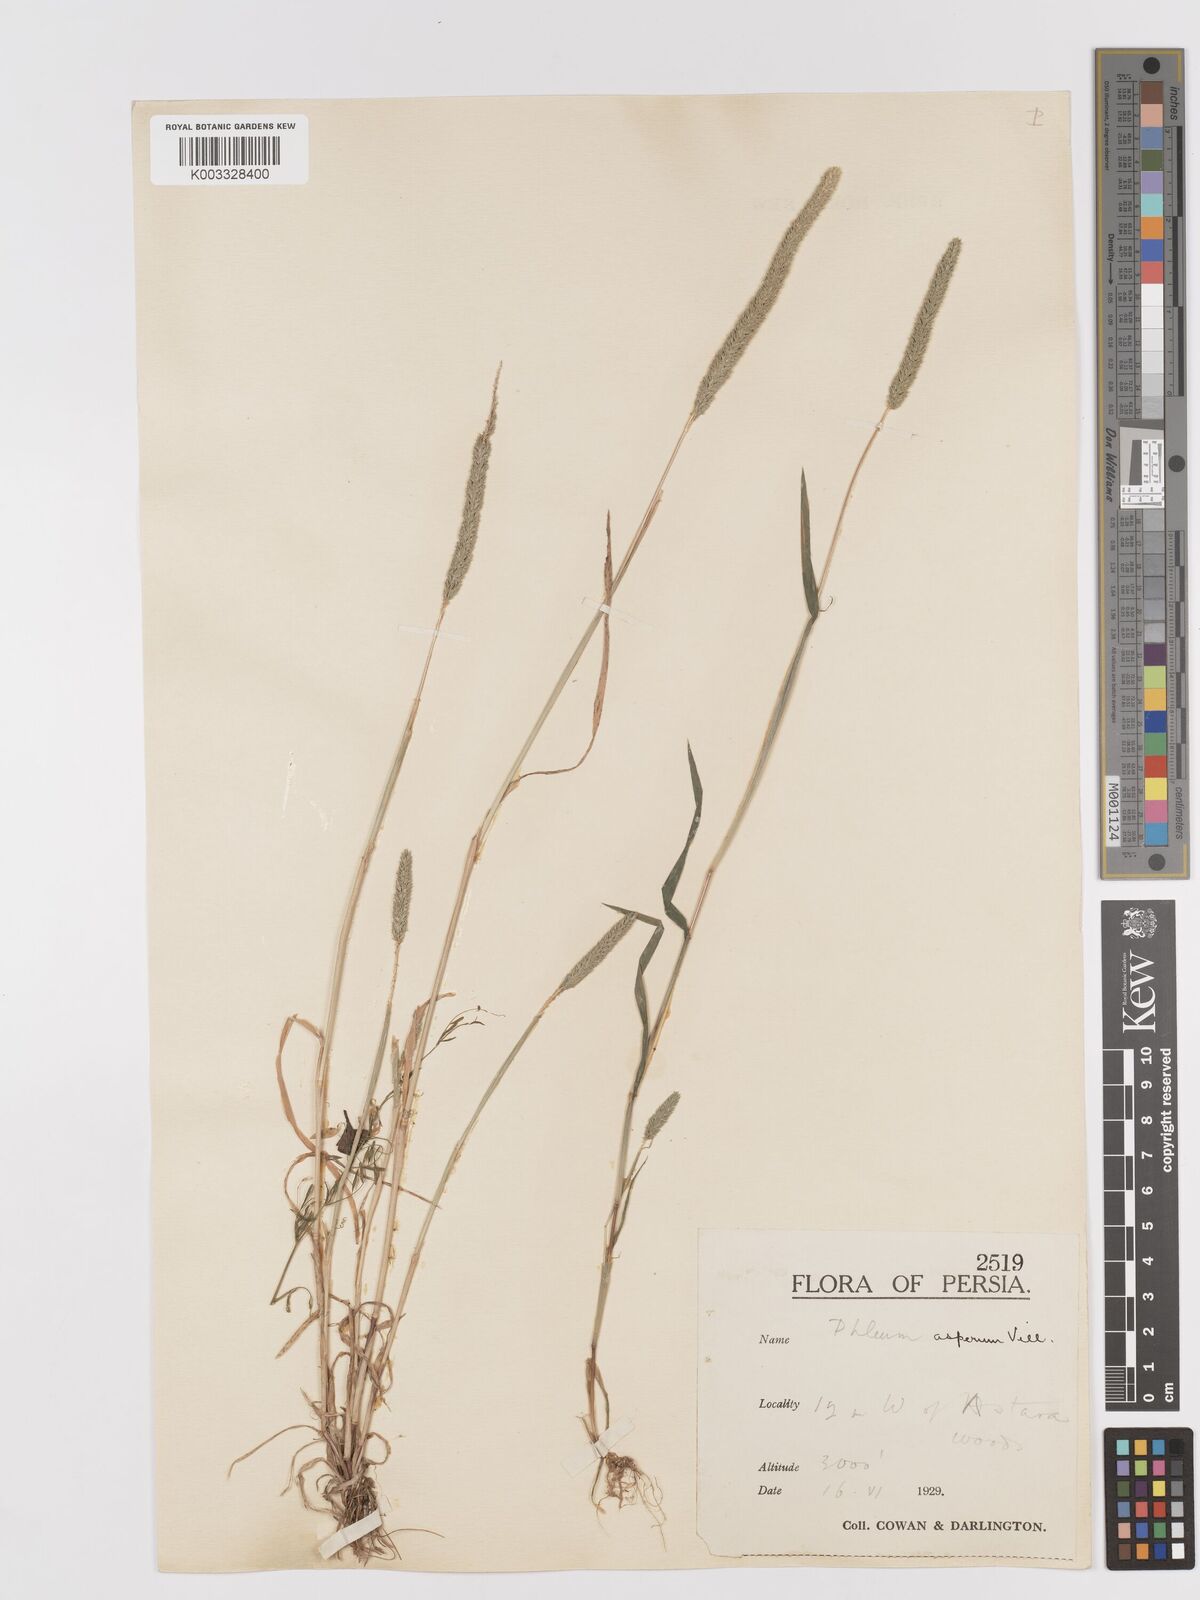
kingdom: Plantae
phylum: Tracheophyta
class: Liliopsida
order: Poales
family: Poaceae
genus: Phleum
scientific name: Phleum paniculatum
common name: British timothy
